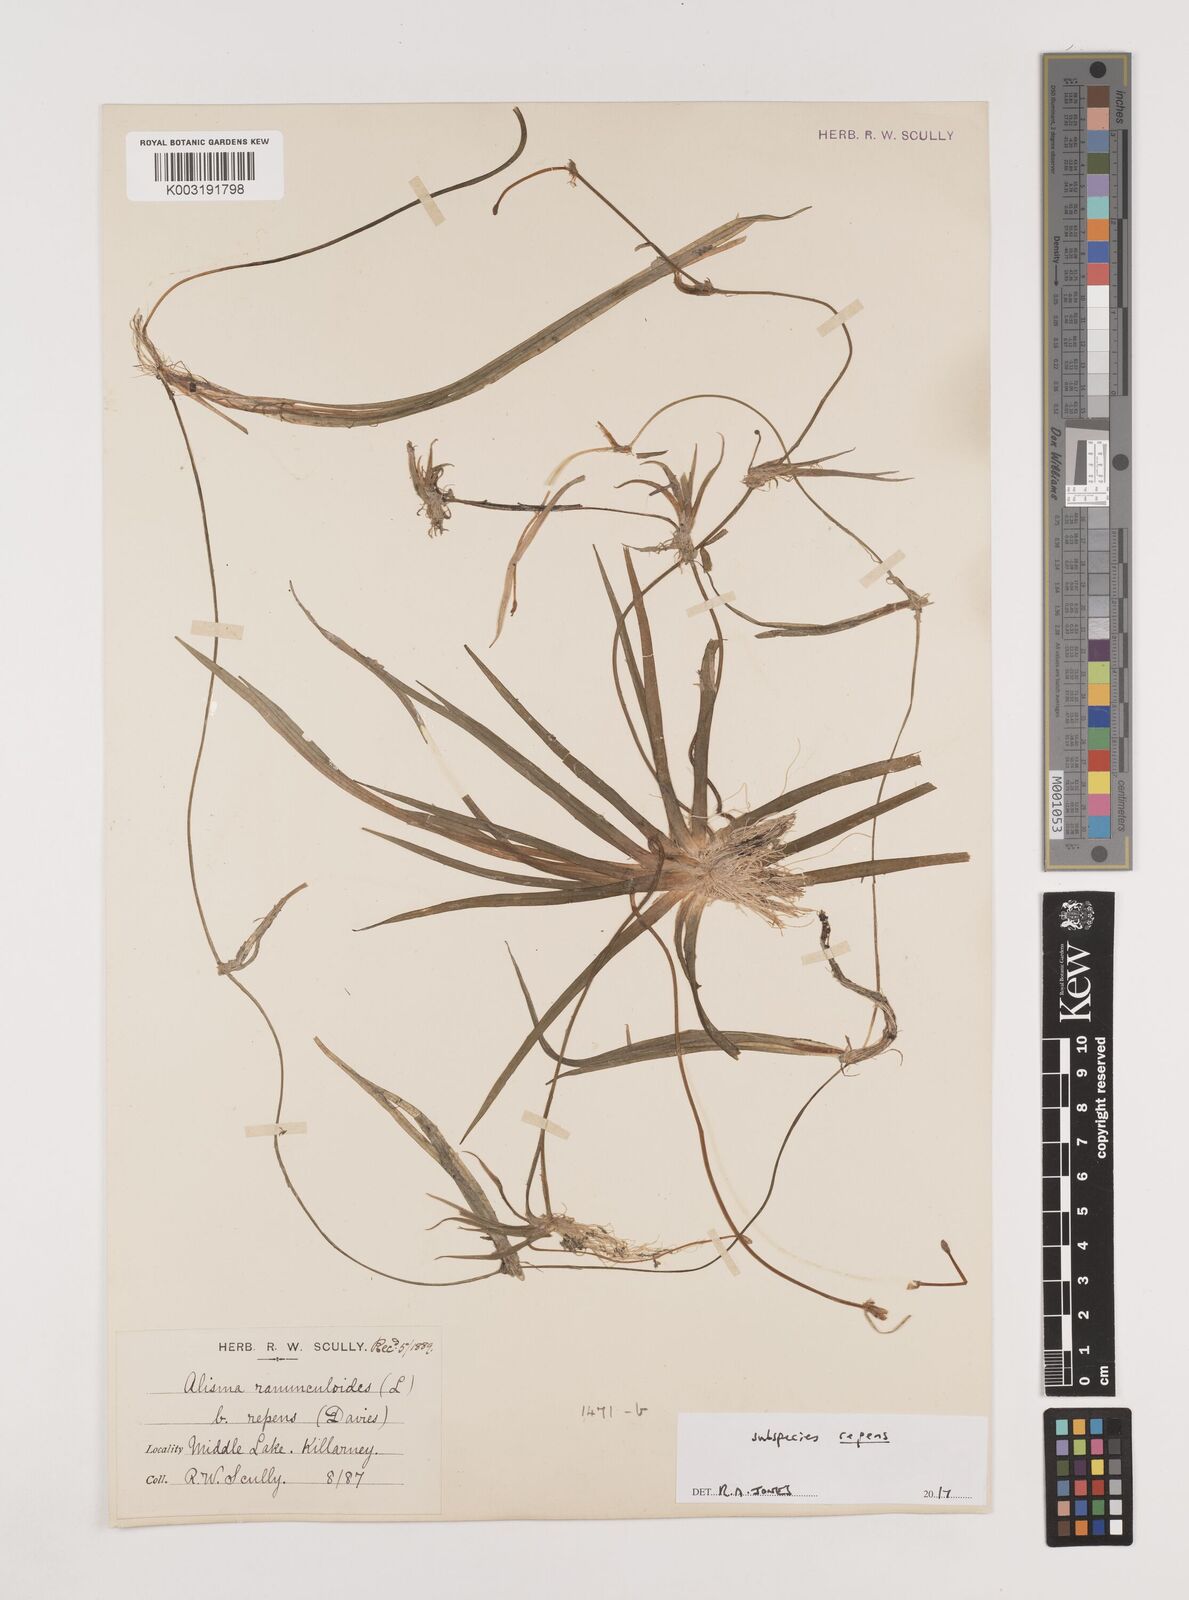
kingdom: Plantae
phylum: Tracheophyta
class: Liliopsida
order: Alismatales
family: Alismataceae
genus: Baldellia
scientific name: Baldellia repens
